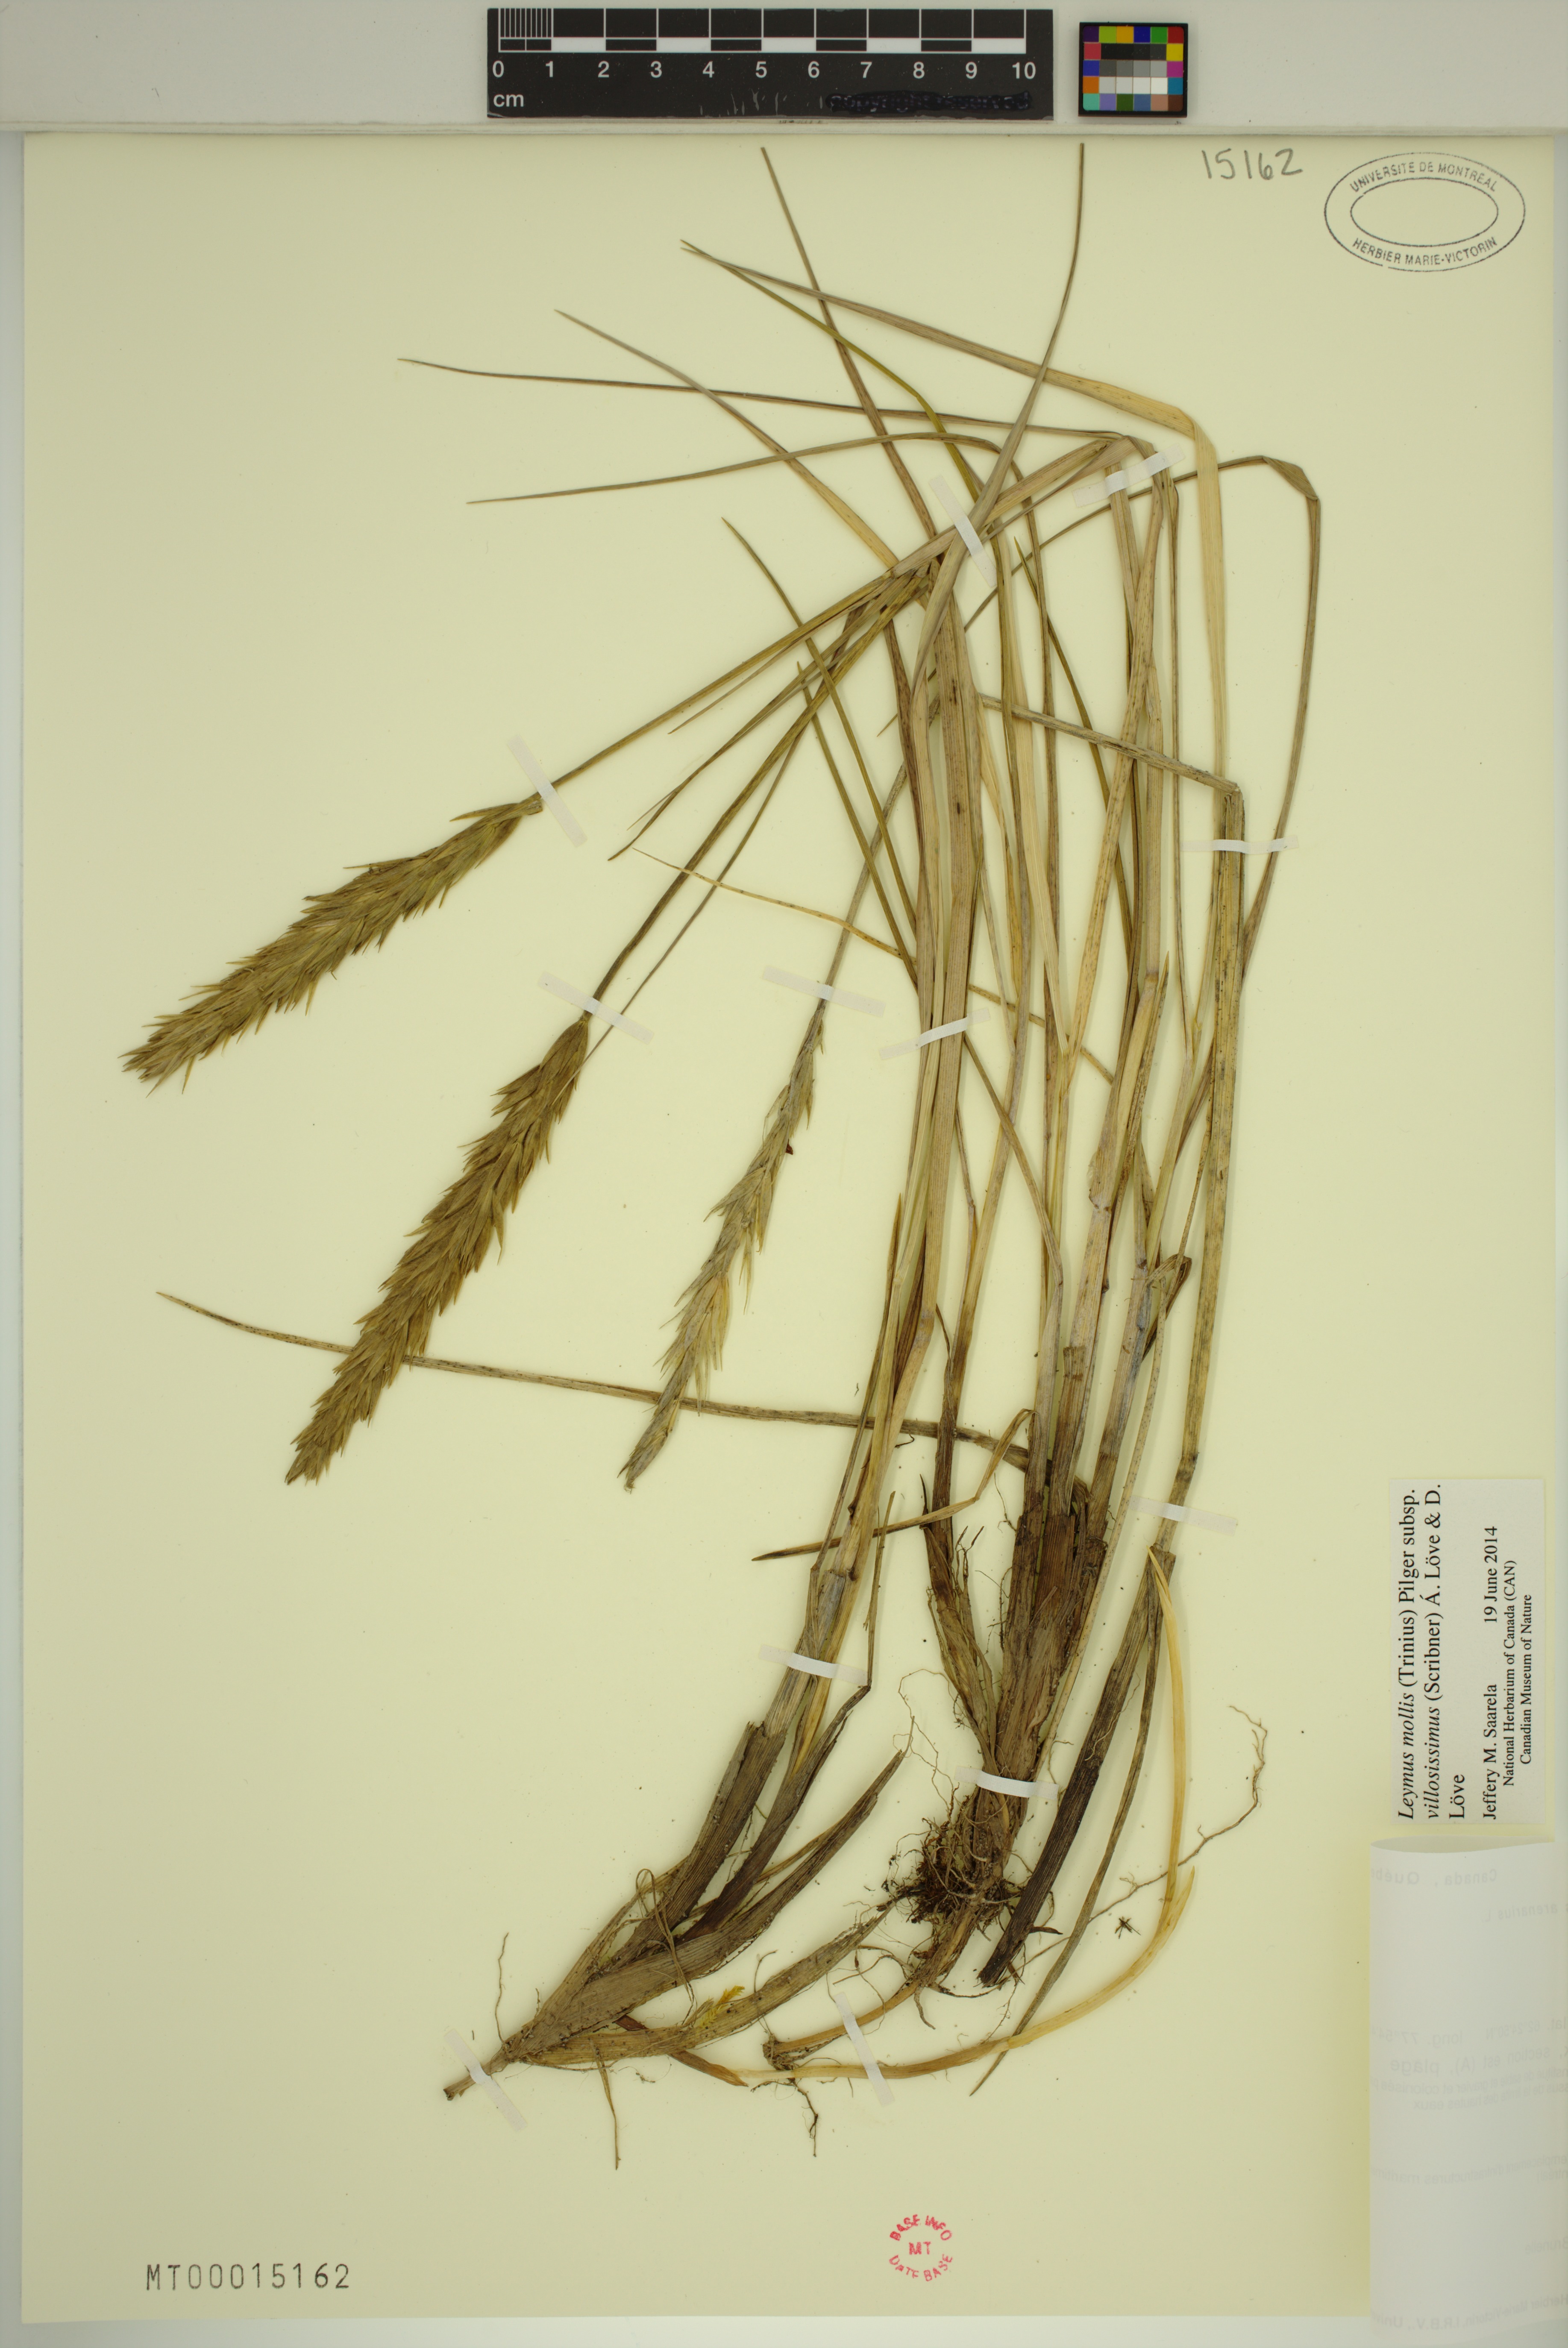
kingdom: Plantae
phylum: Tracheophyta
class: Liliopsida
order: Poales
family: Poaceae
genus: Leymus
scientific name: Leymus villosissimus
